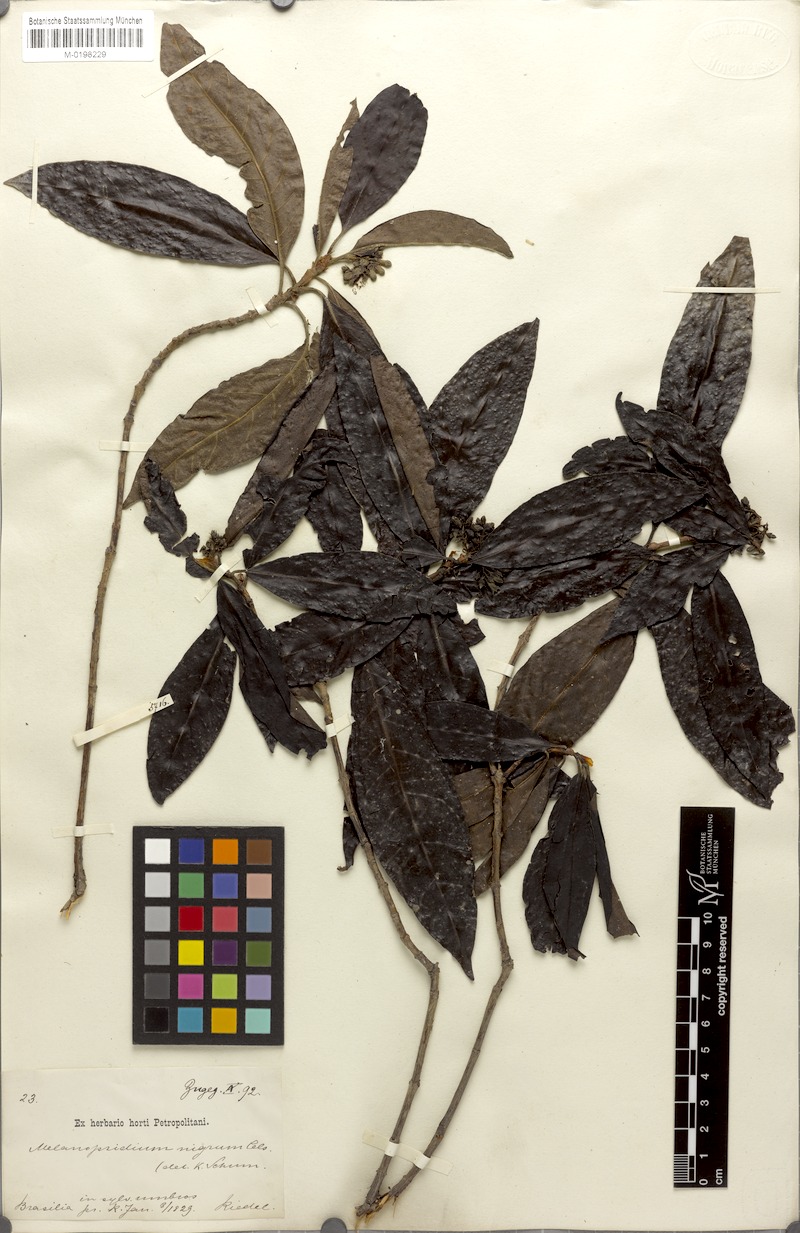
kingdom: Plantae
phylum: Tracheophyta
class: Magnoliopsida
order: Gentianales
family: Rubiaceae
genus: Melanopsidium
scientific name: Melanopsidium nigrum
